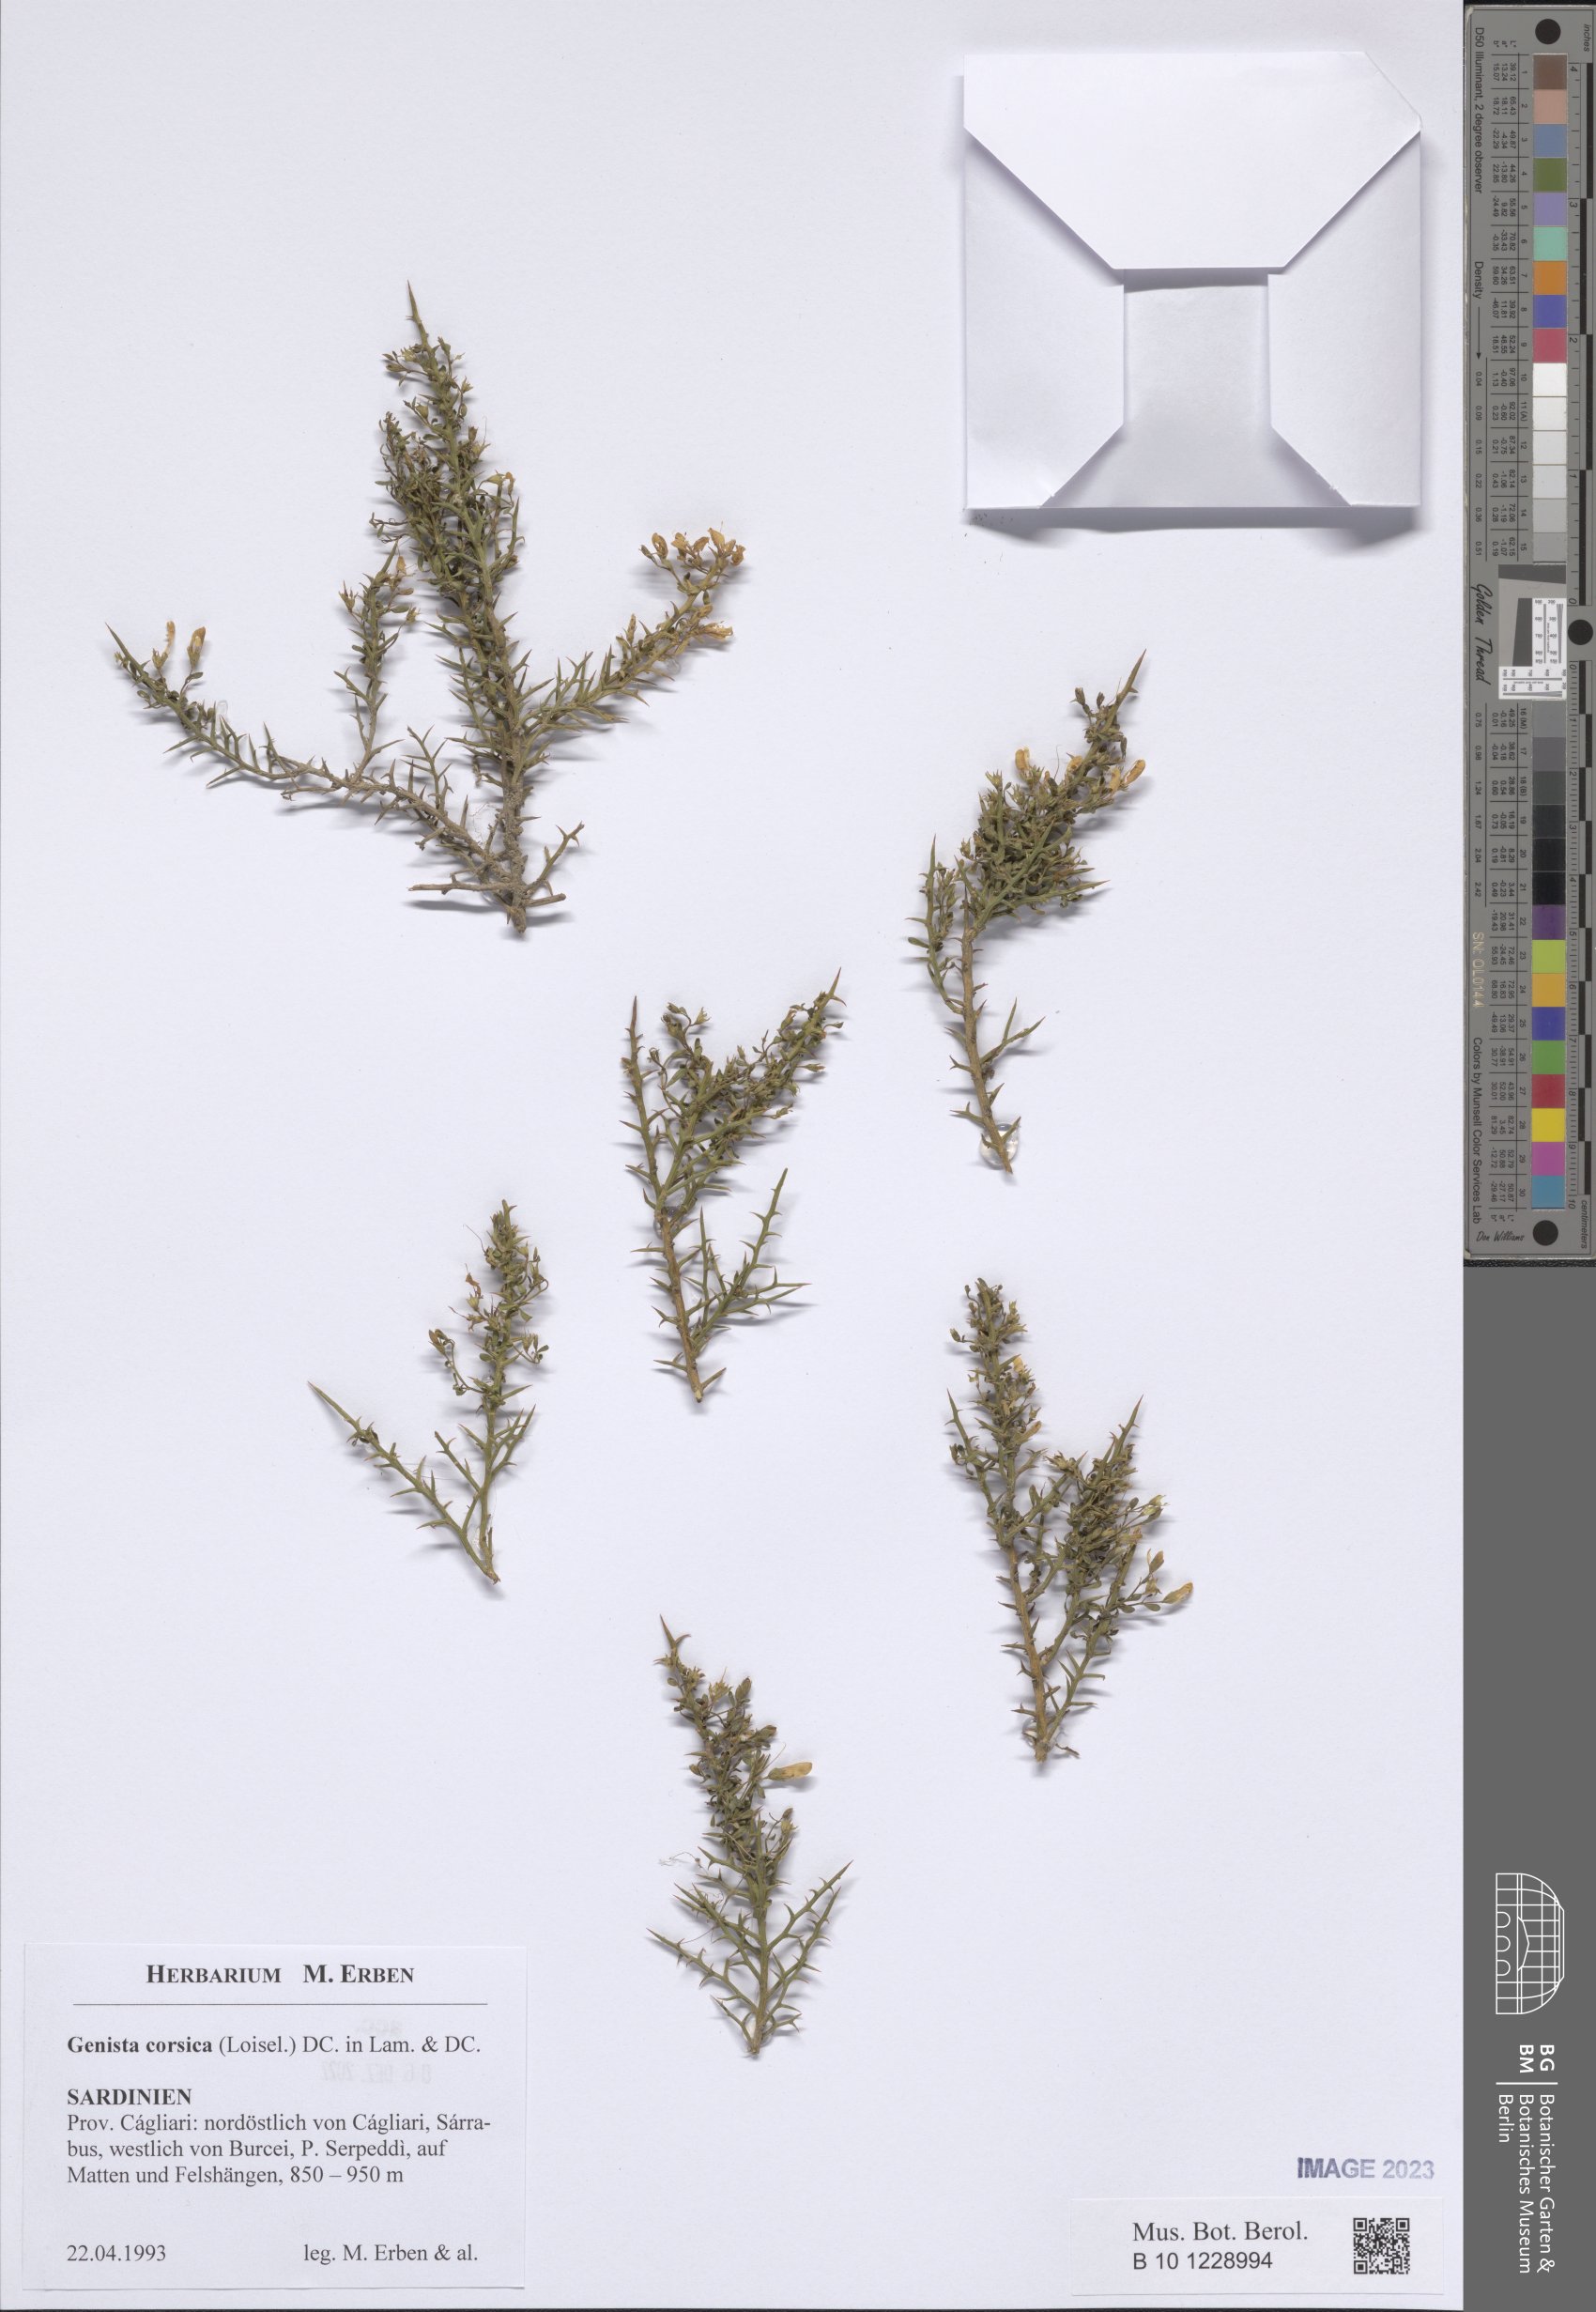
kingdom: Plantae
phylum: Tracheophyta
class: Magnoliopsida
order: Fabales
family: Fabaceae
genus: Genista
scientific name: Genista corsica
